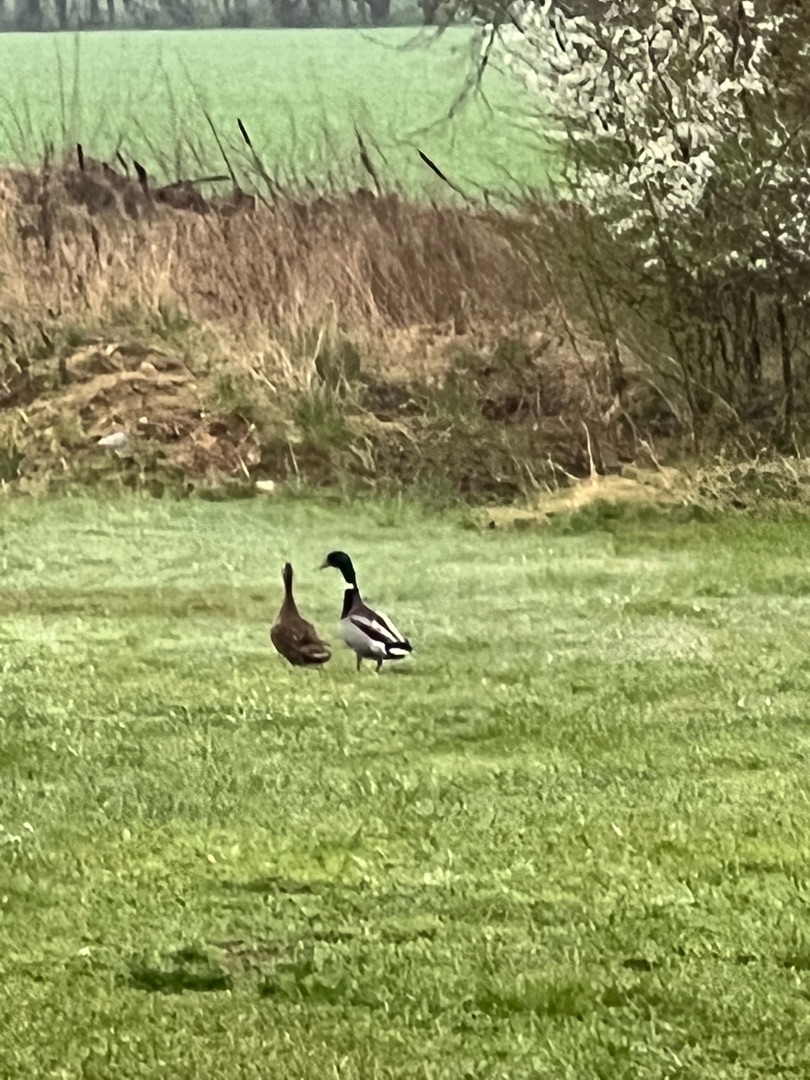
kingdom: Animalia
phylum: Chordata
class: Aves
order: Anseriformes
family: Anatidae
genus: Anas
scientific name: Anas platyrhynchos
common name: Gråand
